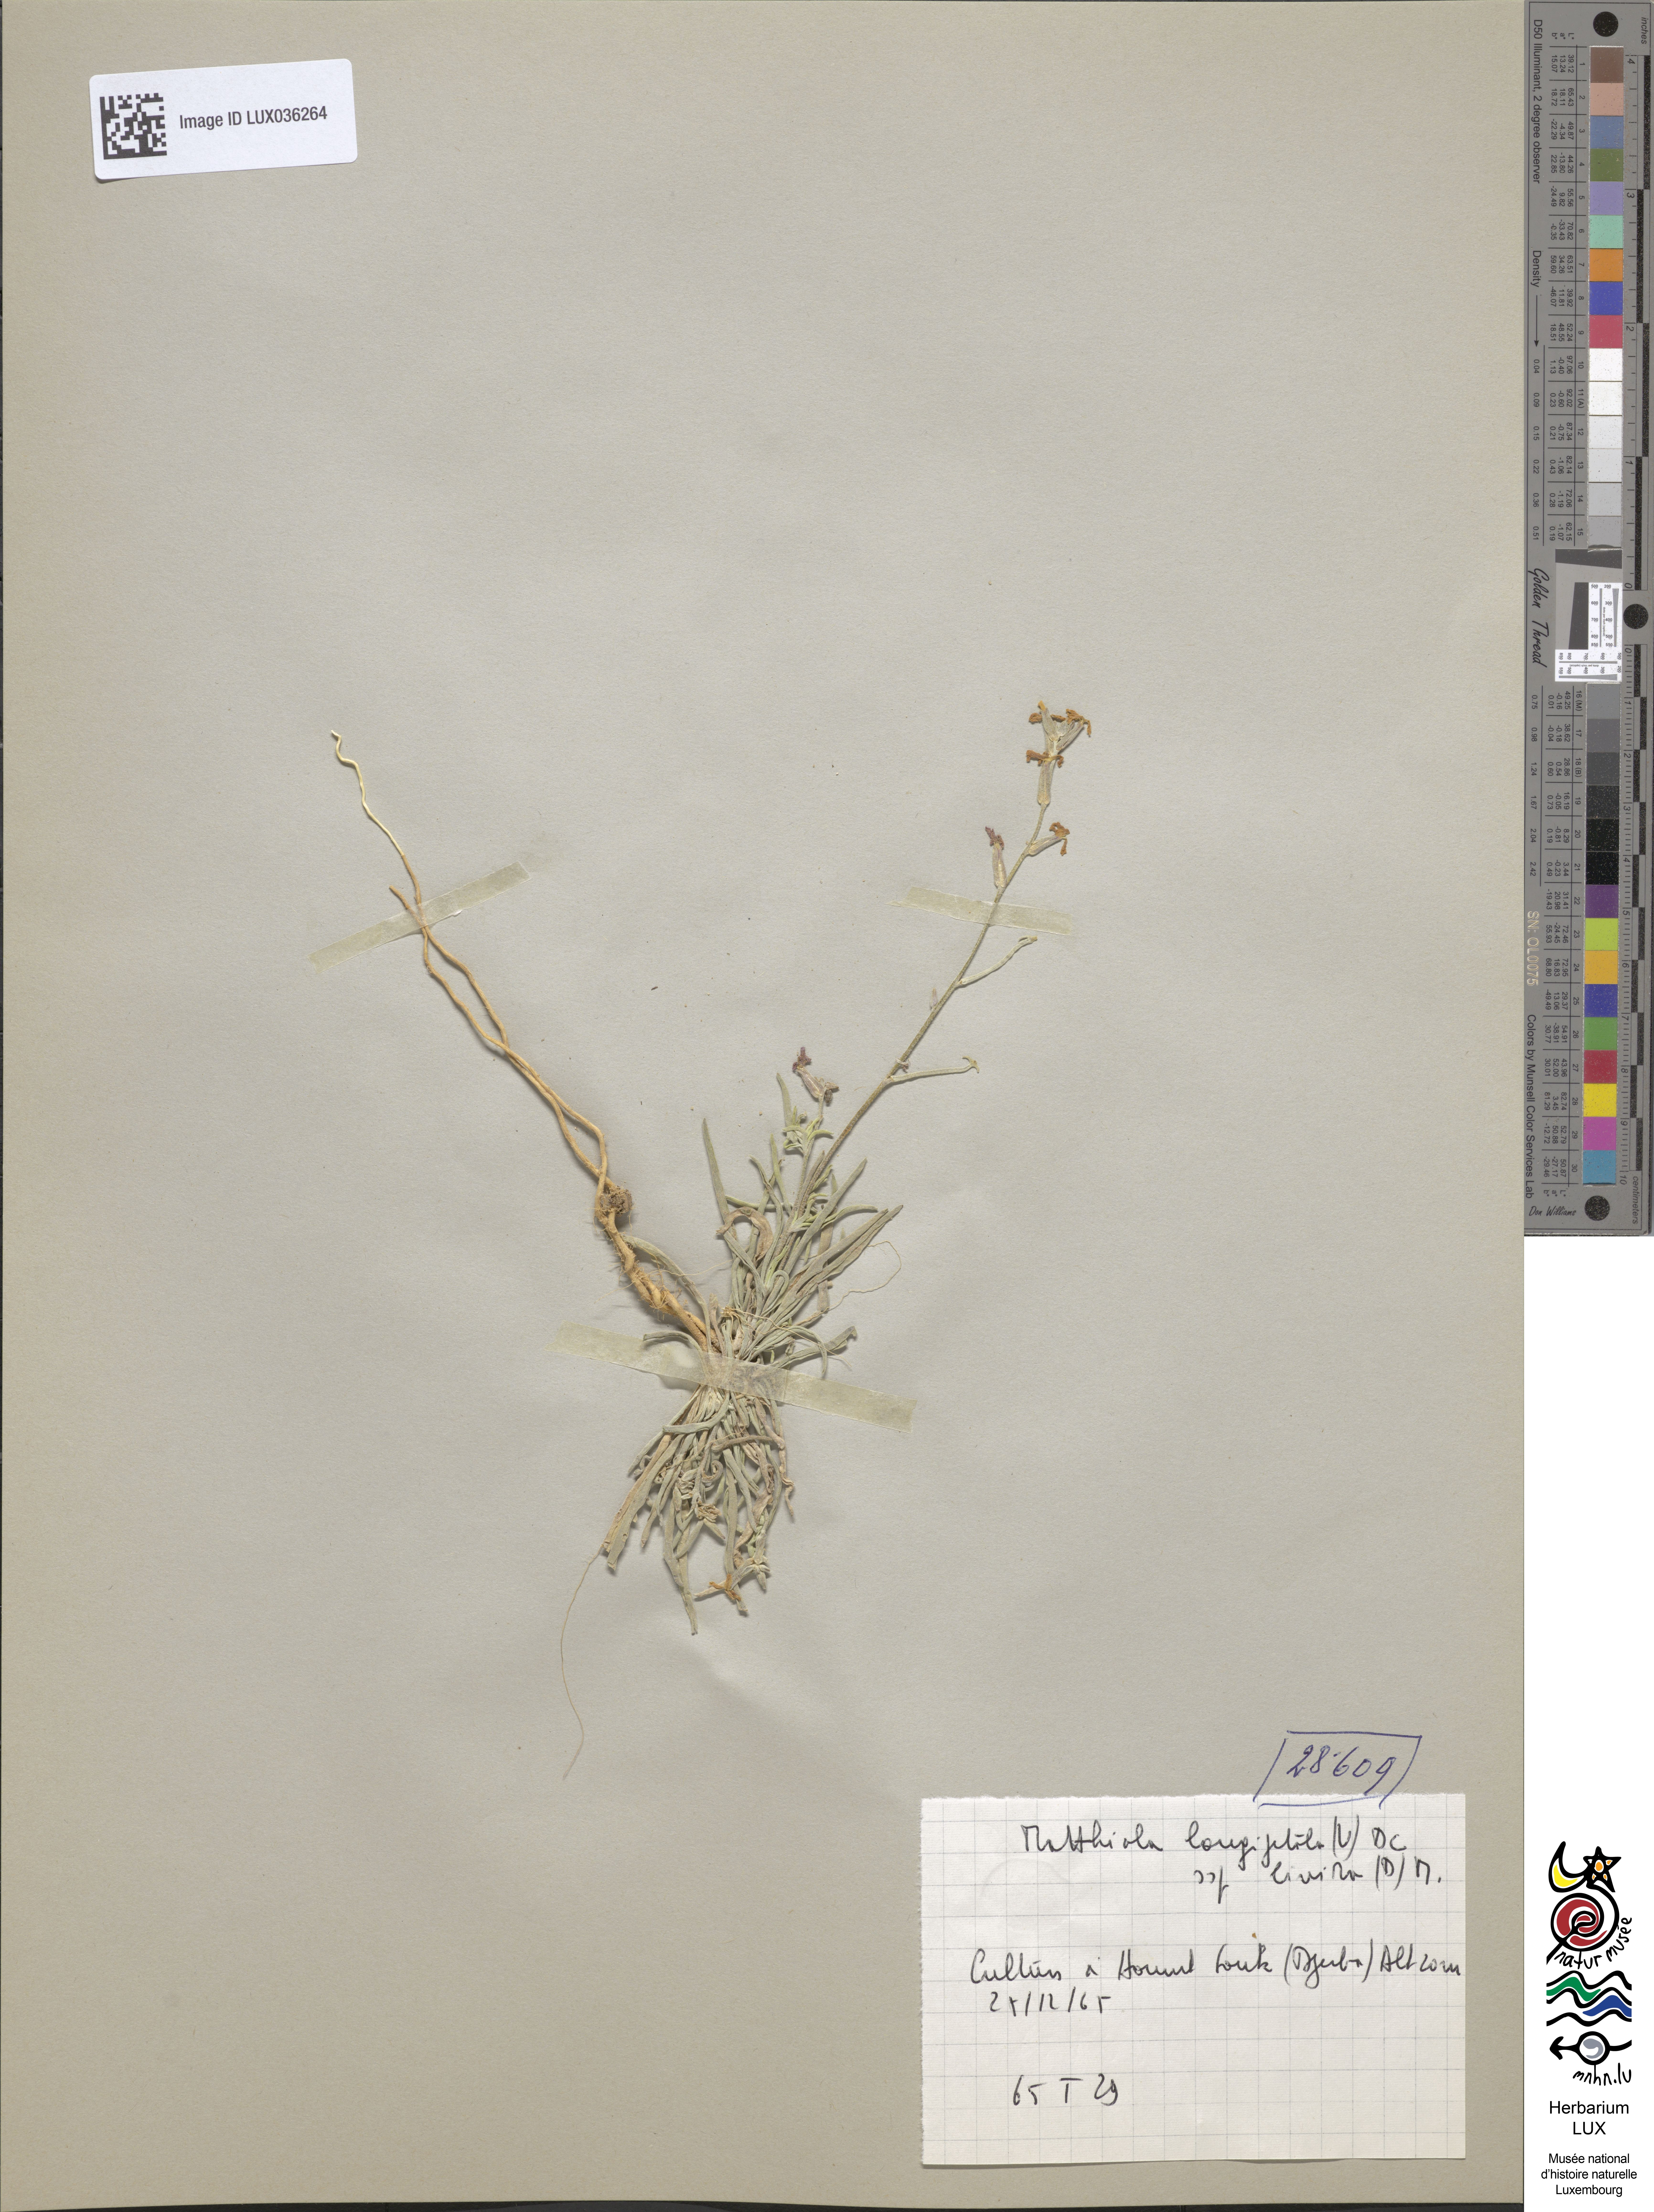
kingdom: Plantae
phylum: Tracheophyta
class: Magnoliopsida
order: Brassicales
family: Brassicaceae
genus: Matthiola
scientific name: Matthiola longipetala
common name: Night-scented stock
